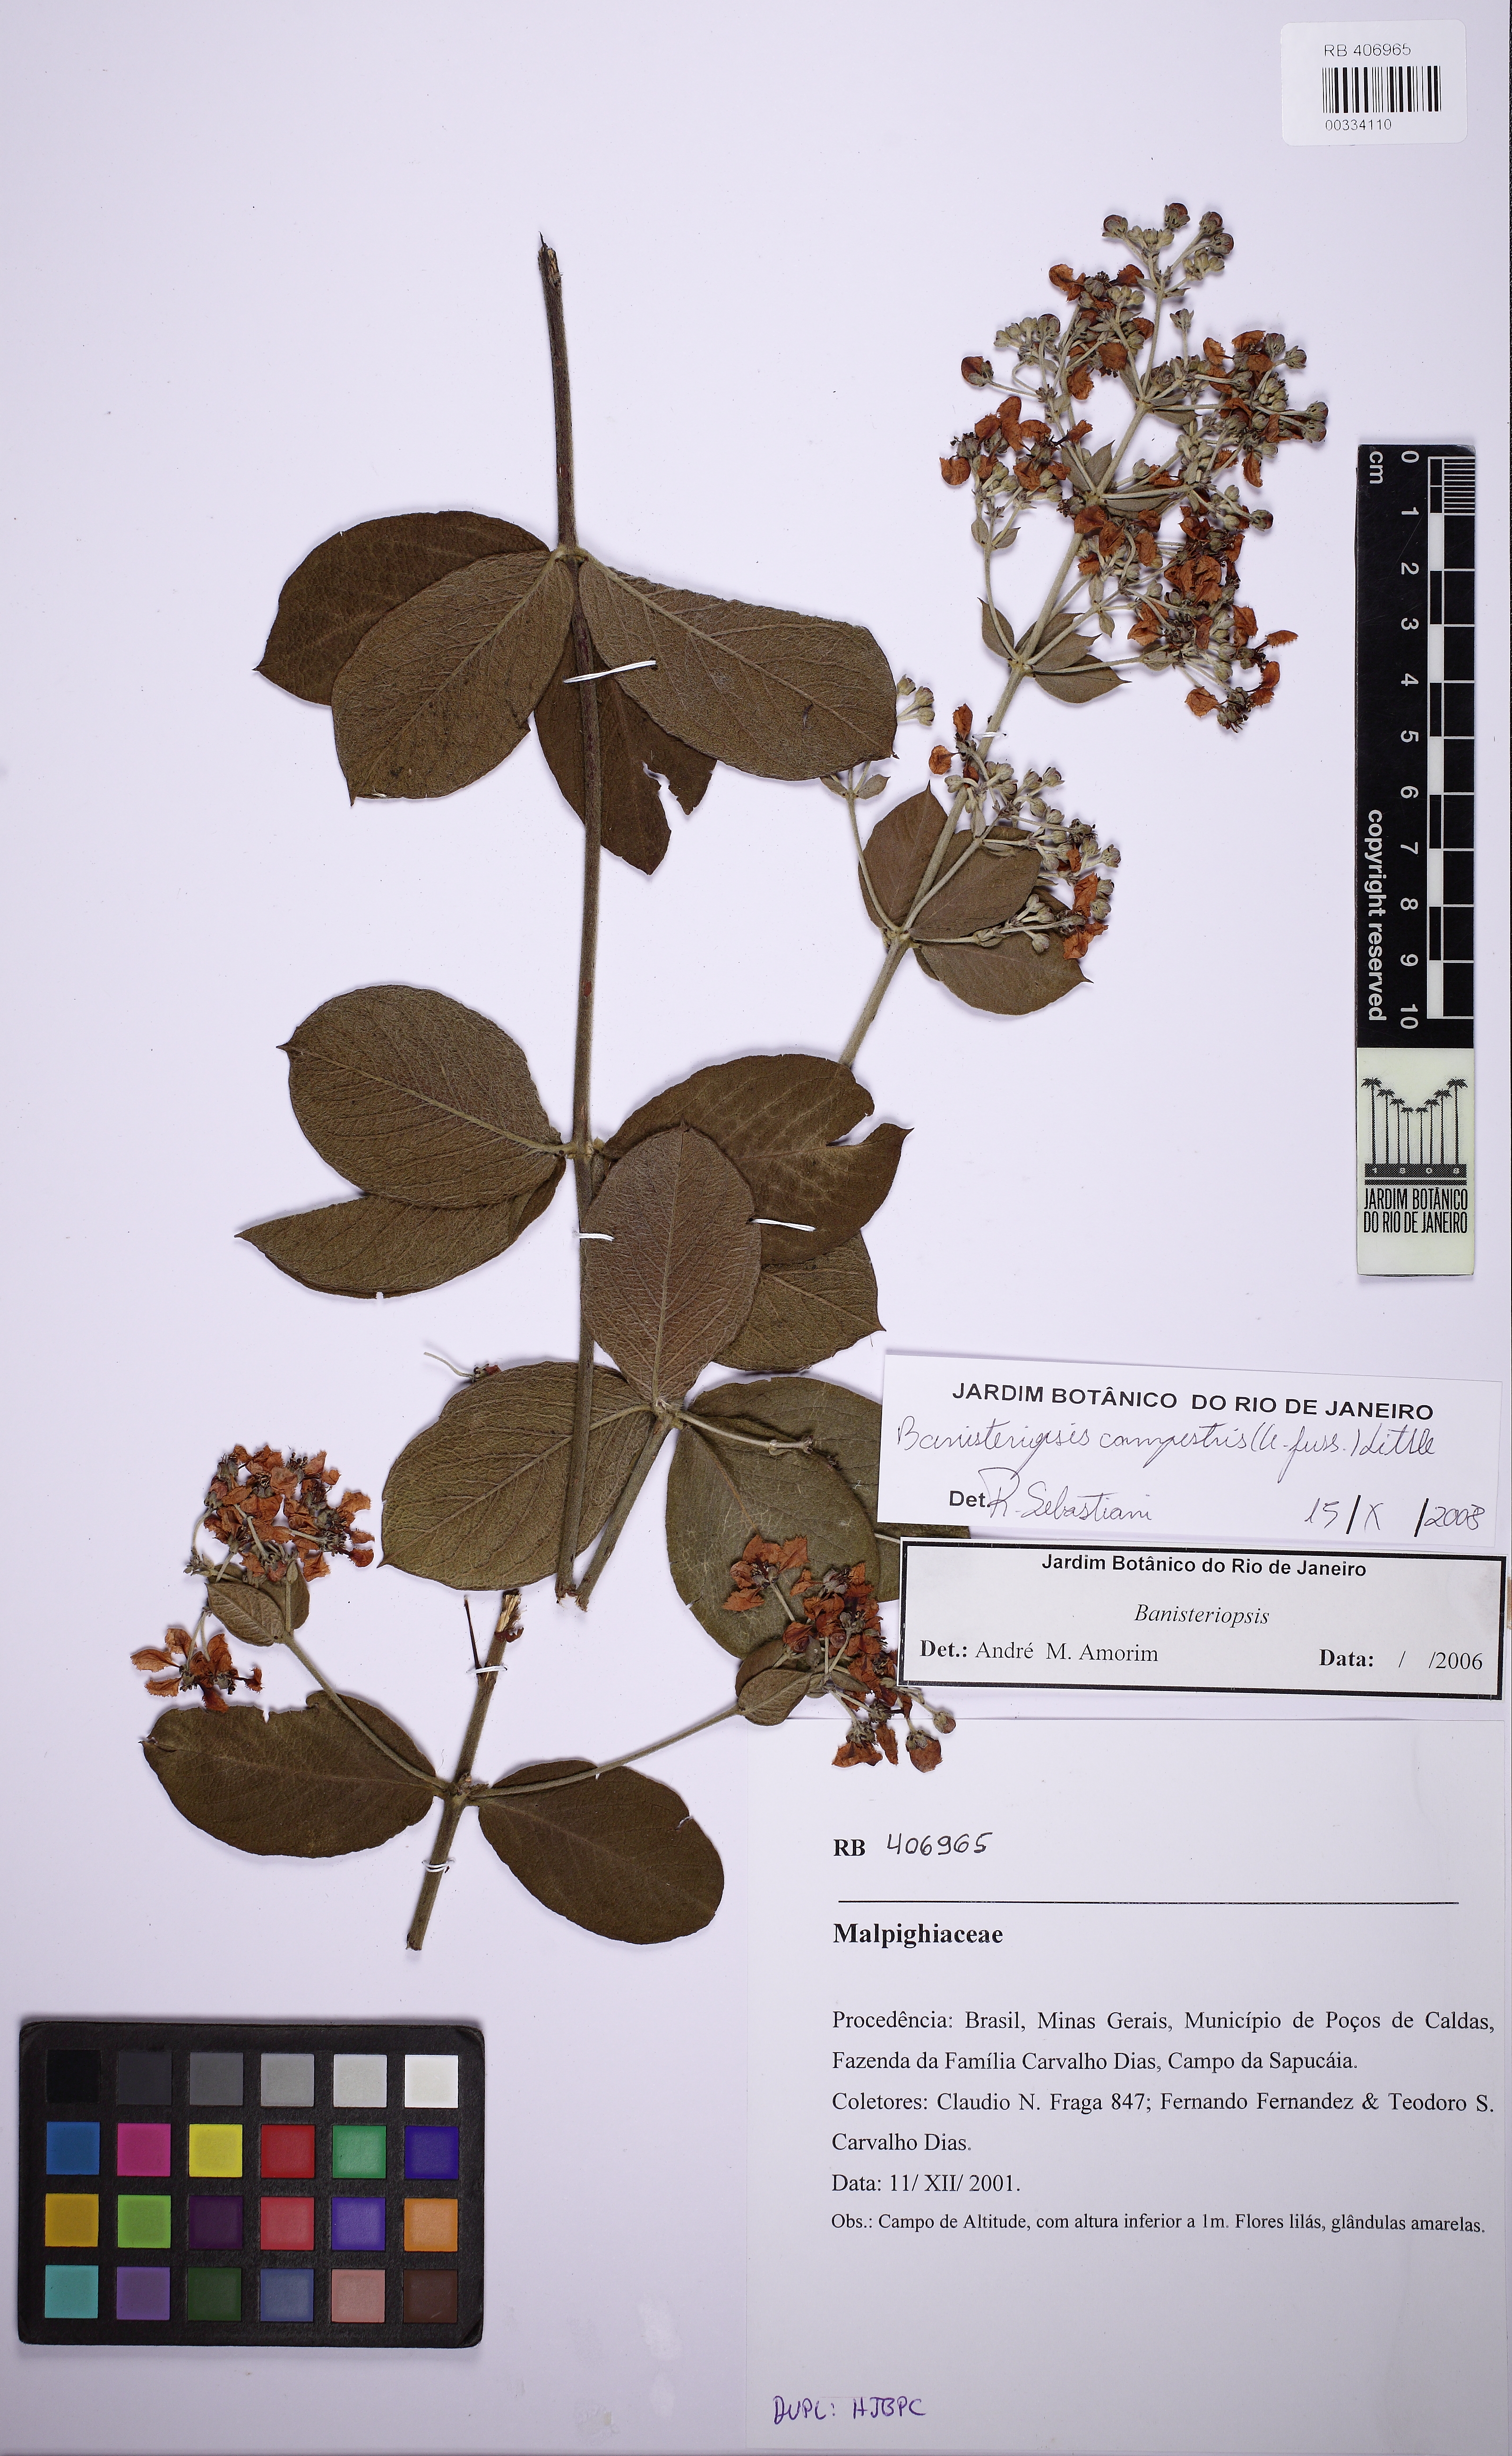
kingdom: Plantae
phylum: Tracheophyta
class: Magnoliopsida
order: Malpighiales
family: Malpighiaceae
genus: Banisteriopsis
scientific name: Banisteriopsis campestris
